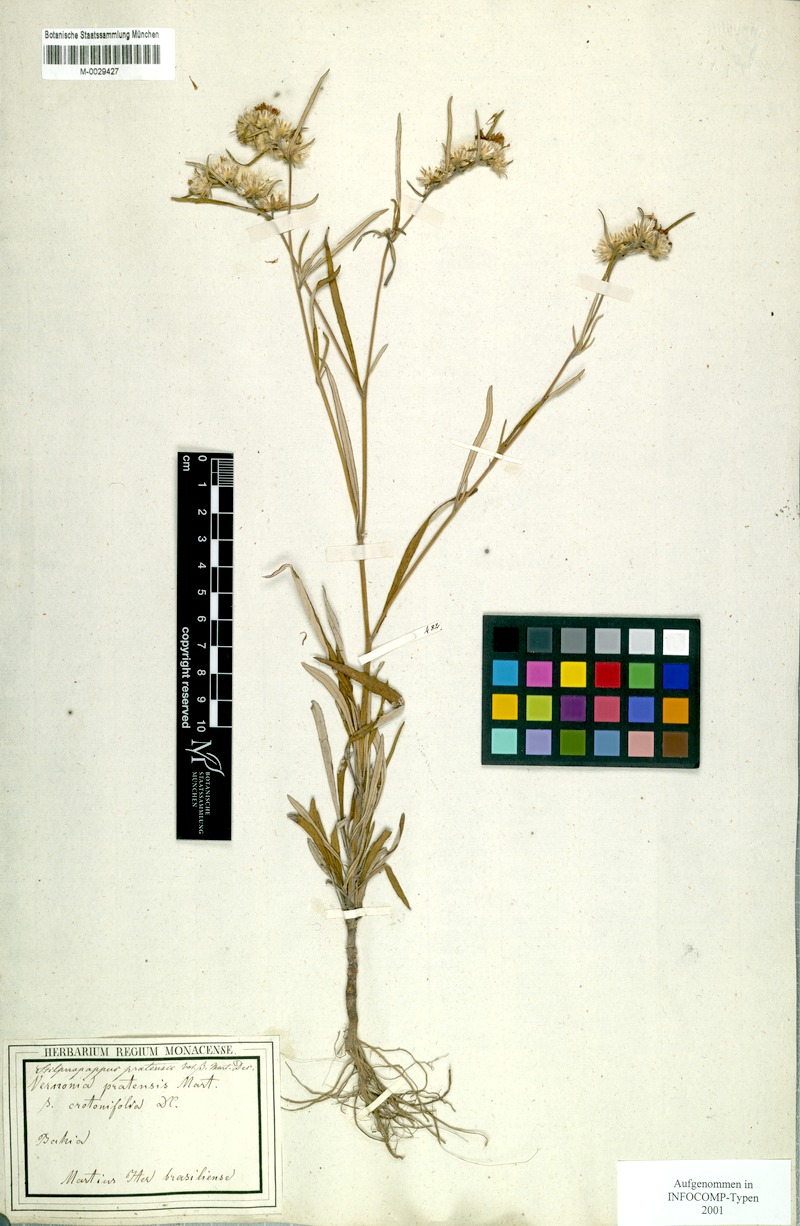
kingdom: Plantae
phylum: Tracheophyta
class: Magnoliopsida
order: Asterales
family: Asteraceae
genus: Stilpnopappus
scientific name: Stilpnopappus pratensis
